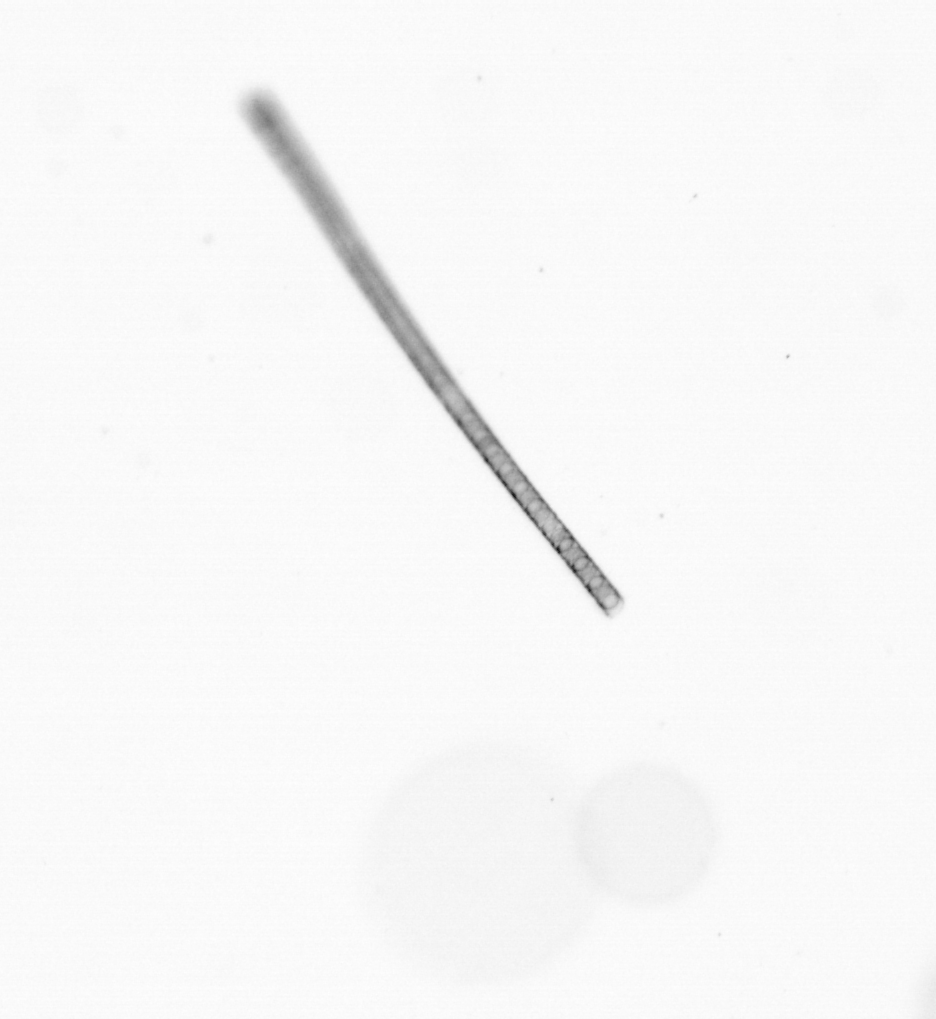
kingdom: Chromista
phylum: Ochrophyta
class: Bacillariophyceae
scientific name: Bacillariophyceae
